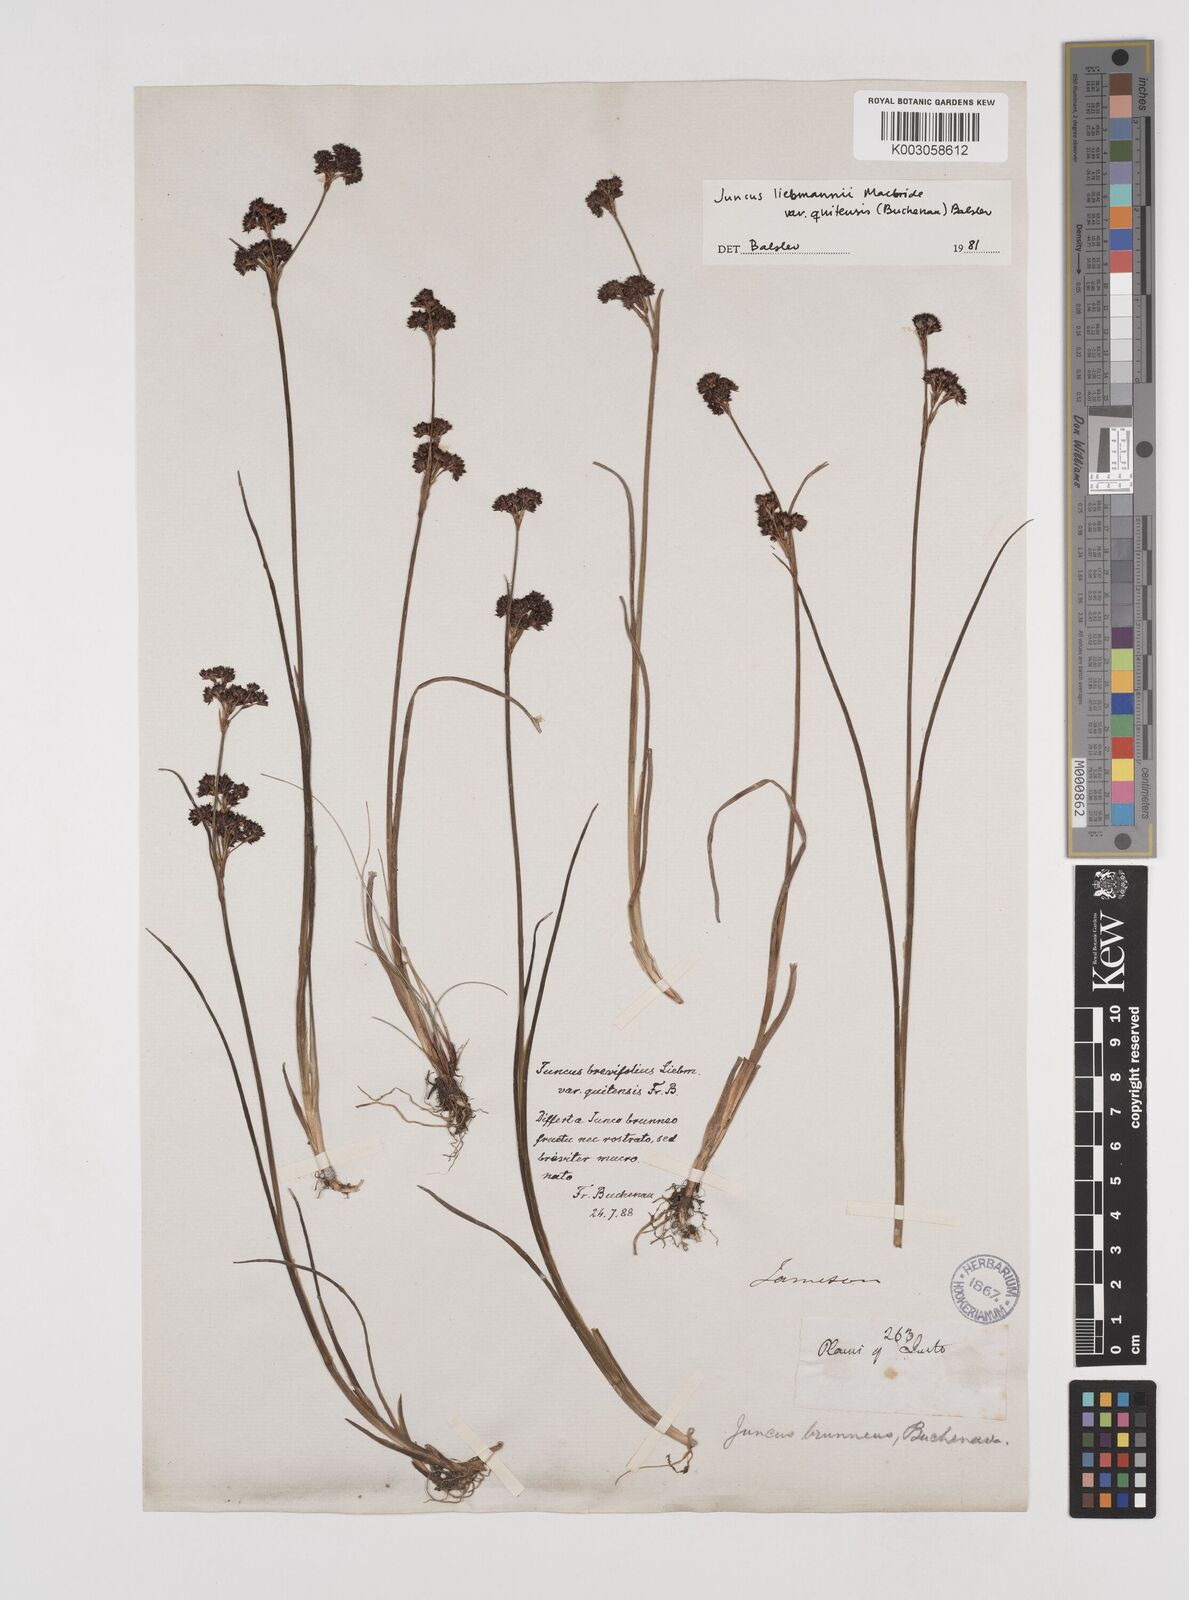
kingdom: Plantae
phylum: Tracheophyta
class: Liliopsida
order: Poales
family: Juncaceae
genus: Juncus
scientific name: Juncus liebmannii
